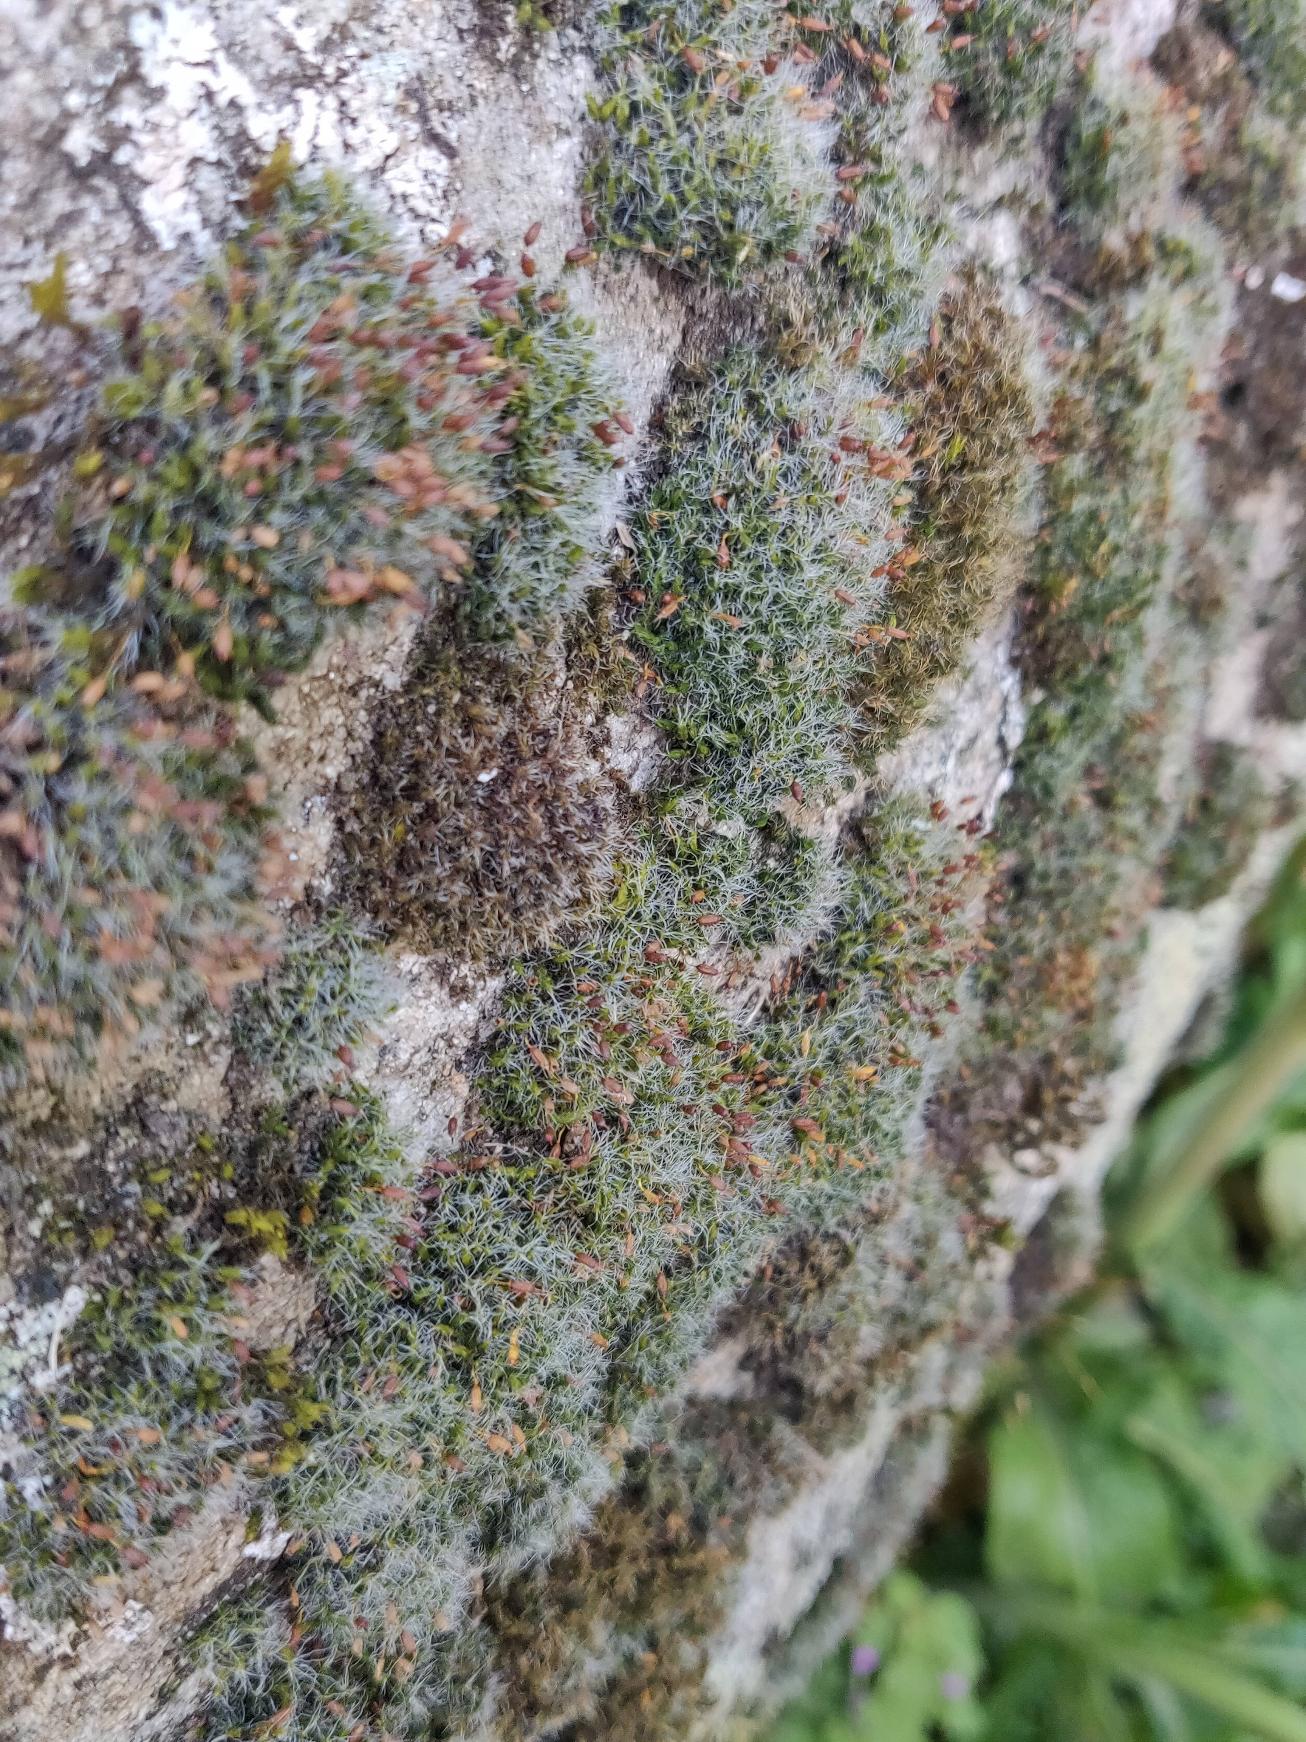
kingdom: Plantae
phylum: Bryophyta
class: Bryopsida
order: Grimmiales
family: Grimmiaceae
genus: Grimmia
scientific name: Grimmia pulvinata
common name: Pude-gråmos
